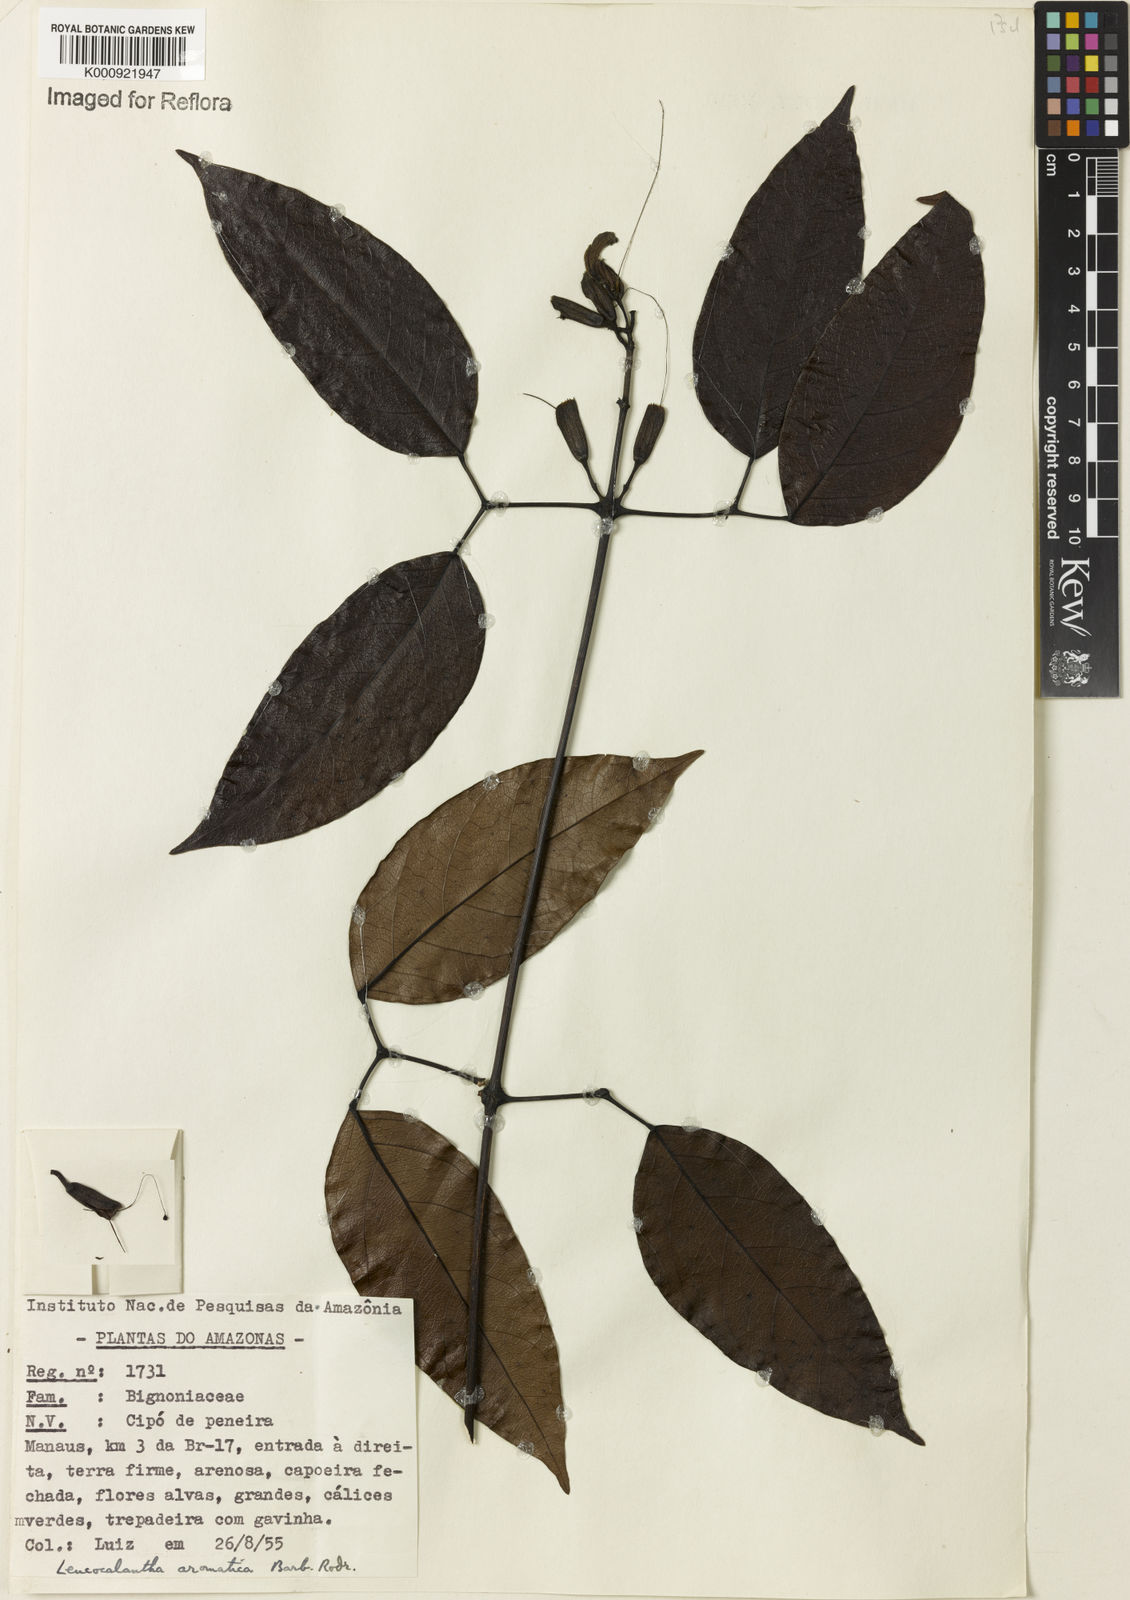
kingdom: Plantae
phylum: Tracheophyta
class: Magnoliopsida
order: Lamiales
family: Bignoniaceae
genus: Pachyptera
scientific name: Pachyptera aromatica
